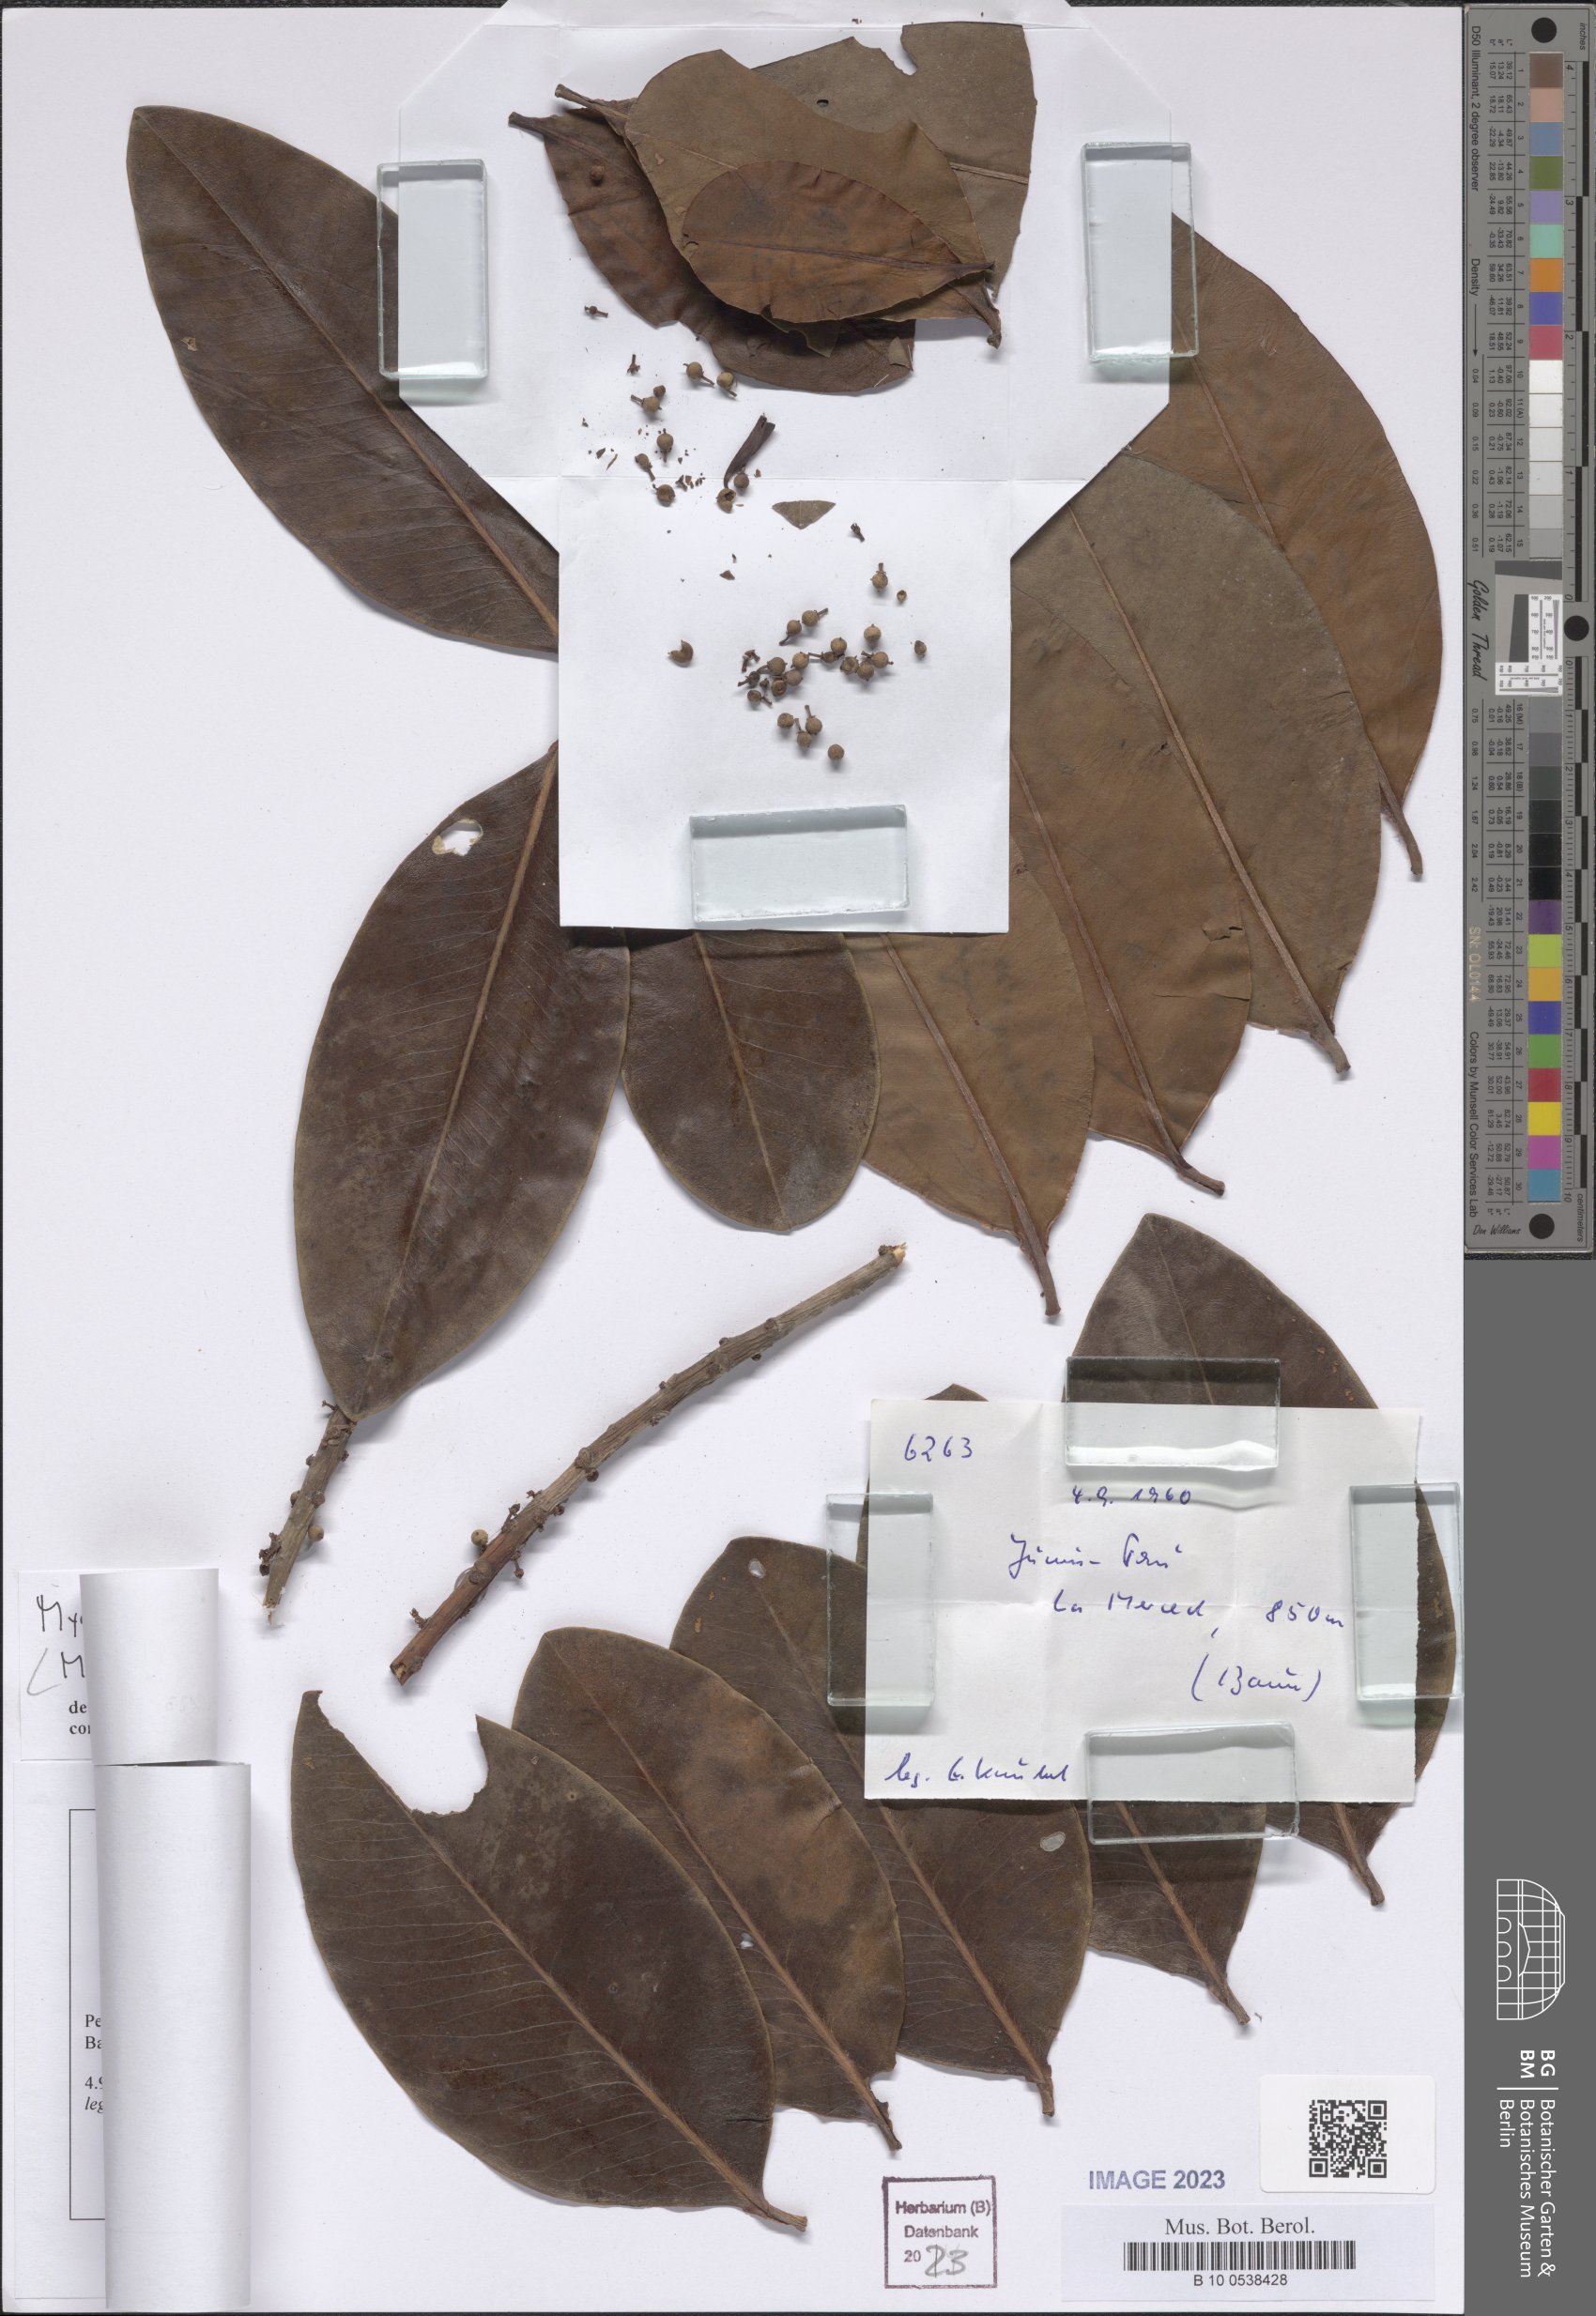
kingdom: Plantae
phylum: Tracheophyta
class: Magnoliopsida
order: Ericales
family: Primulaceae
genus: Myrsine
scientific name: Myrsine
